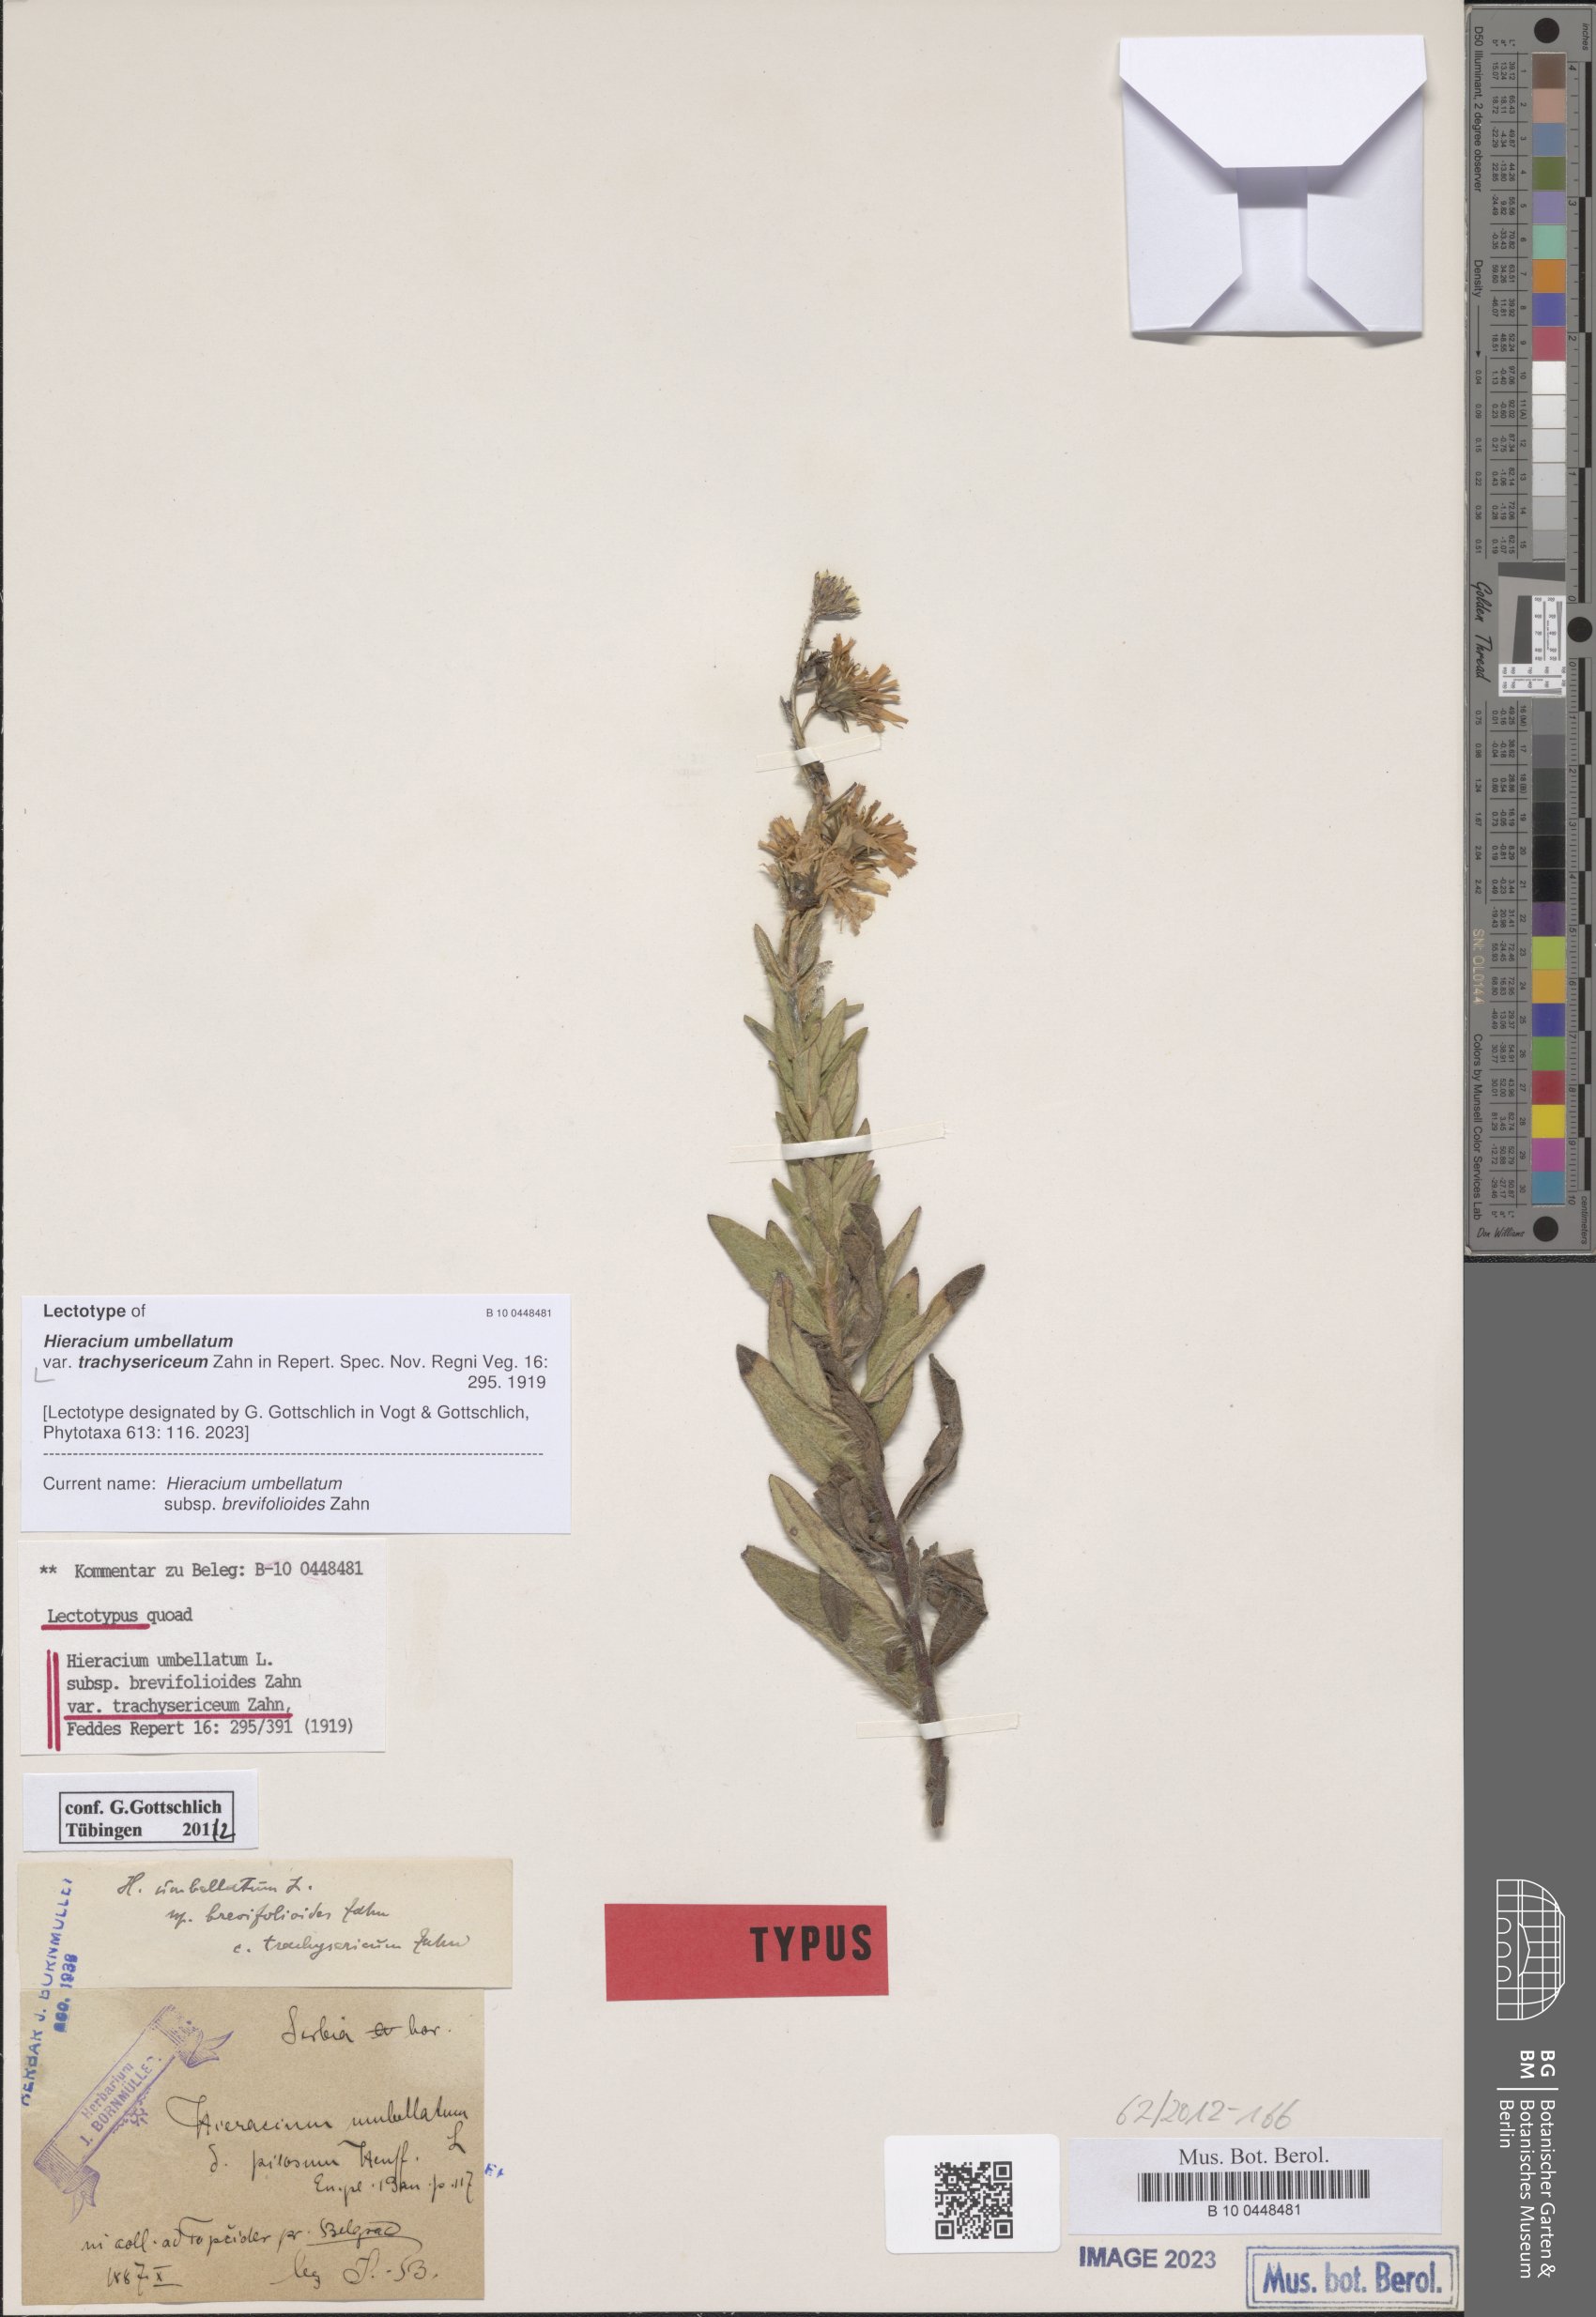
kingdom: Plantae
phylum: Tracheophyta
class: Magnoliopsida
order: Asterales
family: Asteraceae
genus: Hieracium
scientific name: Hieracium umbellatum
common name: Northern hawkweed
